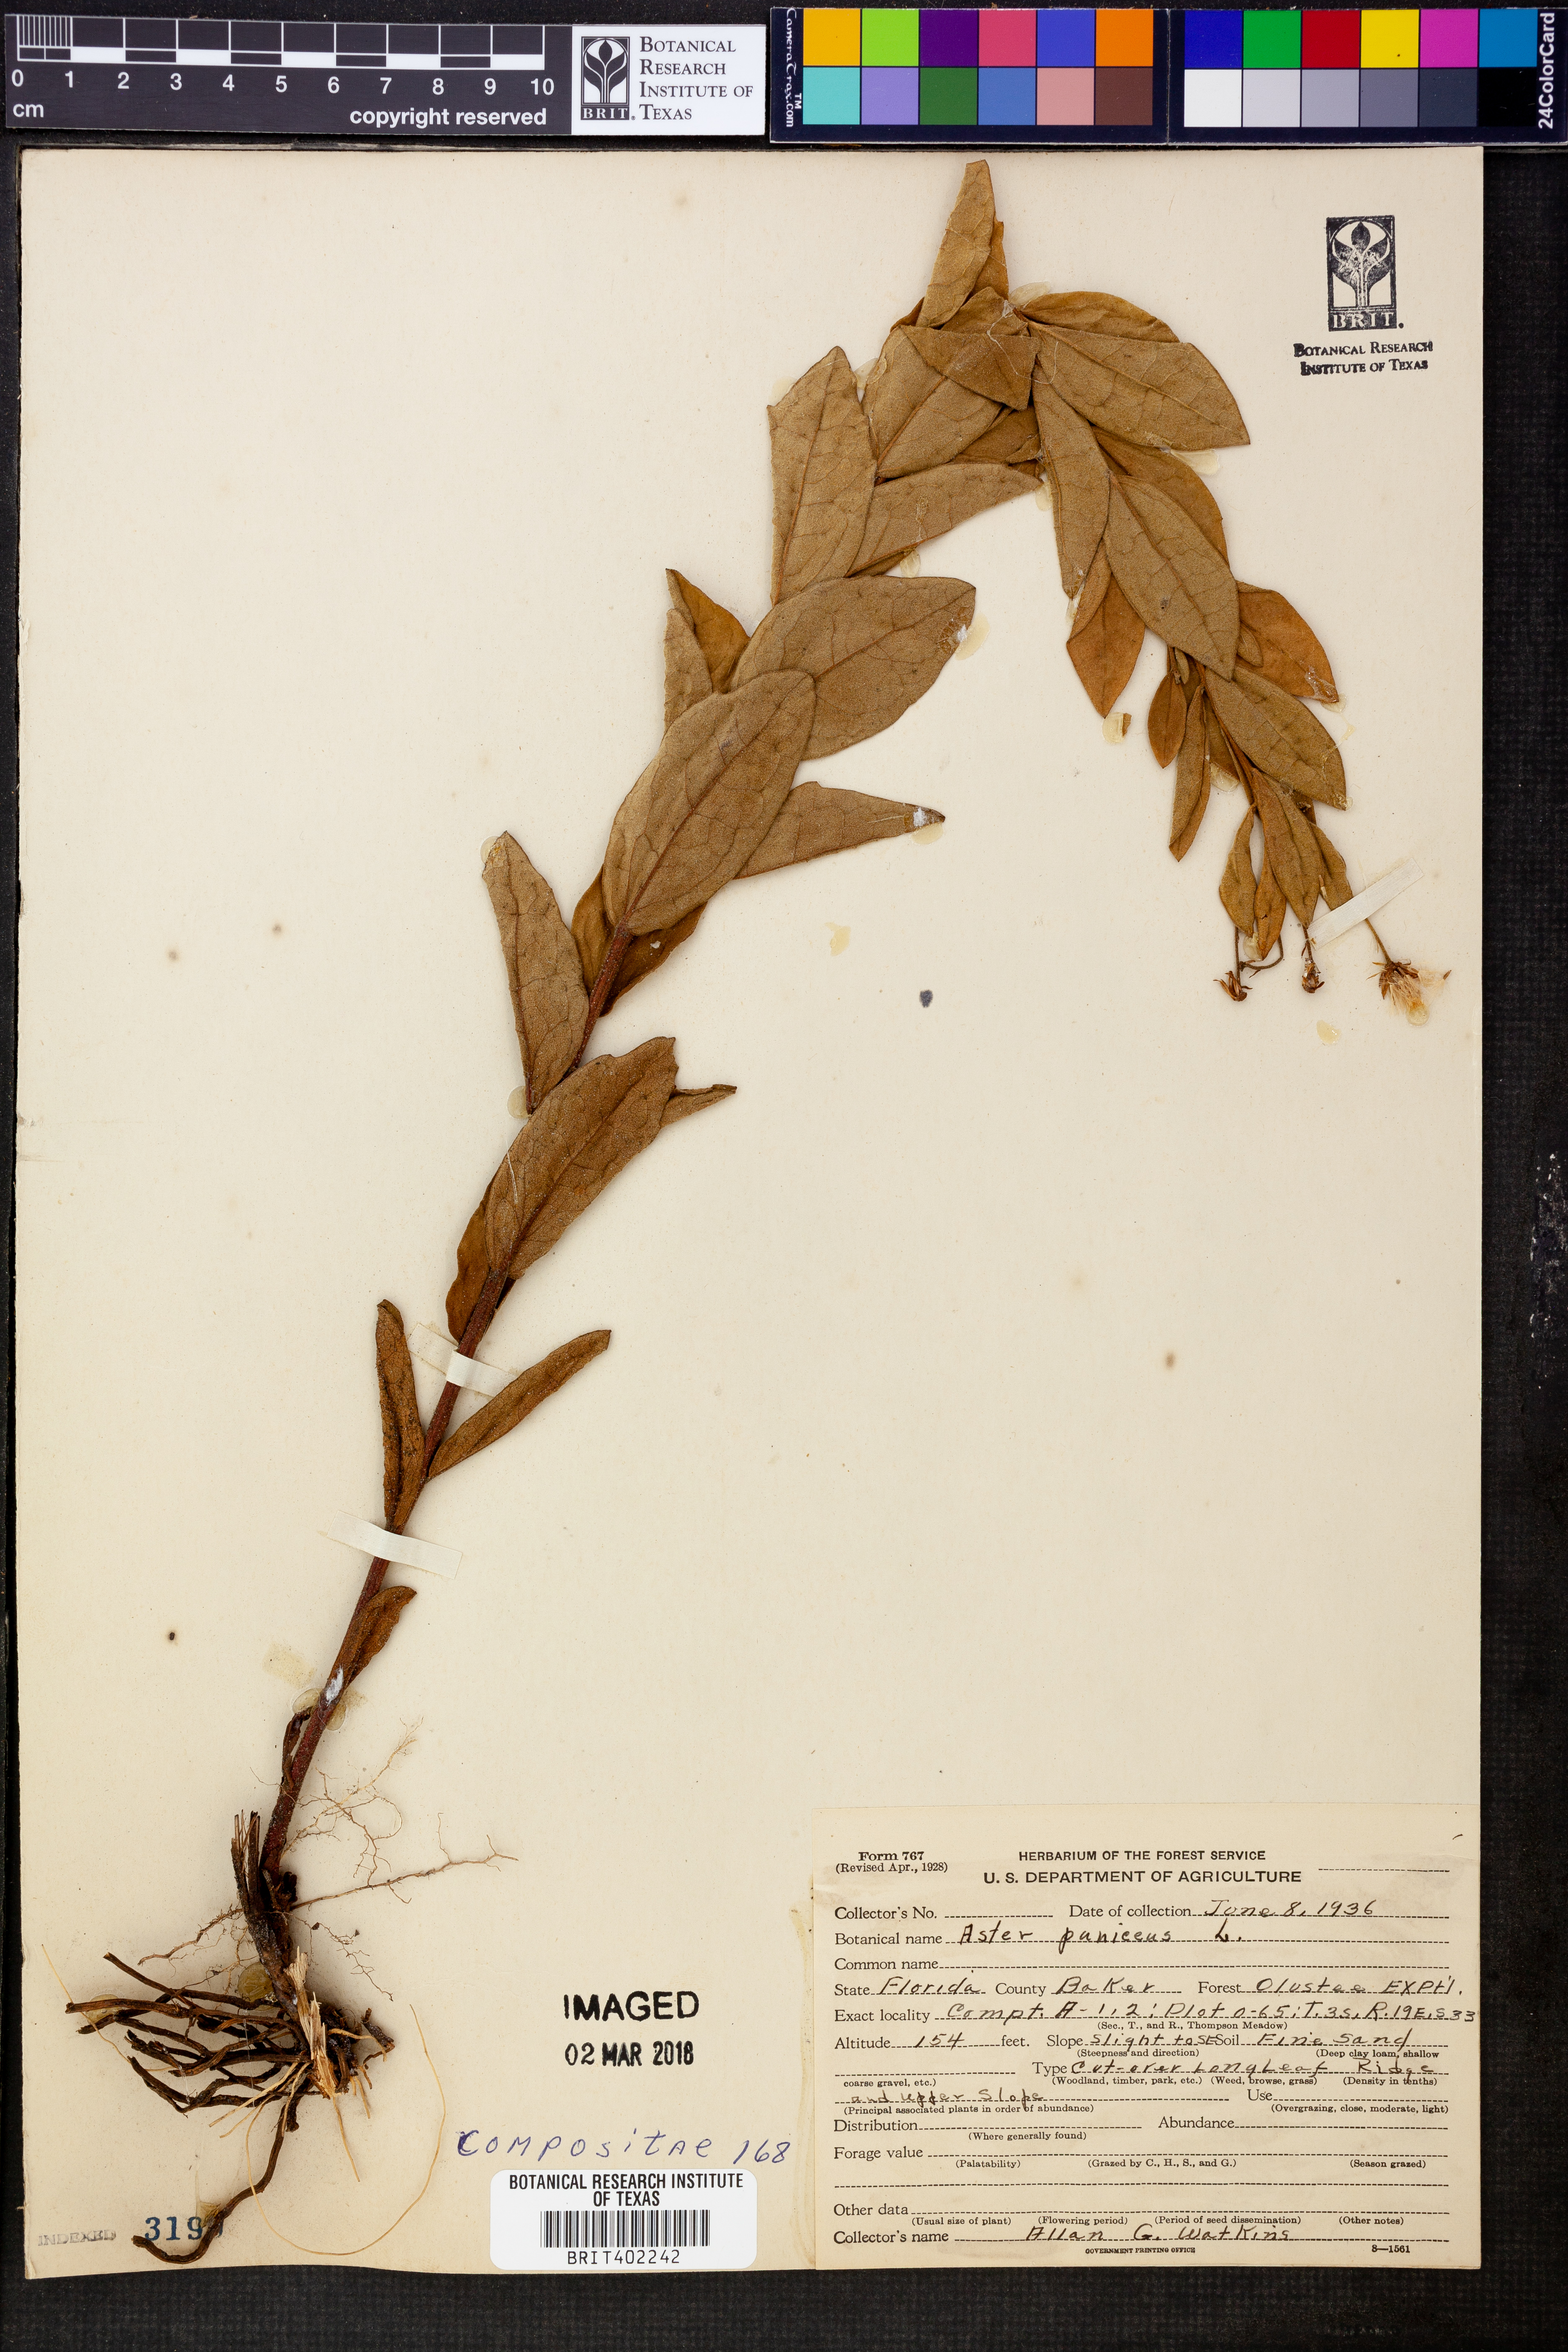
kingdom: Plantae
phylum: Tracheophyta
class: Magnoliopsida
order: Asterales
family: Asteraceae
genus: Symphyotrichum
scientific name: Symphyotrichum puniceum
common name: Bog aster
